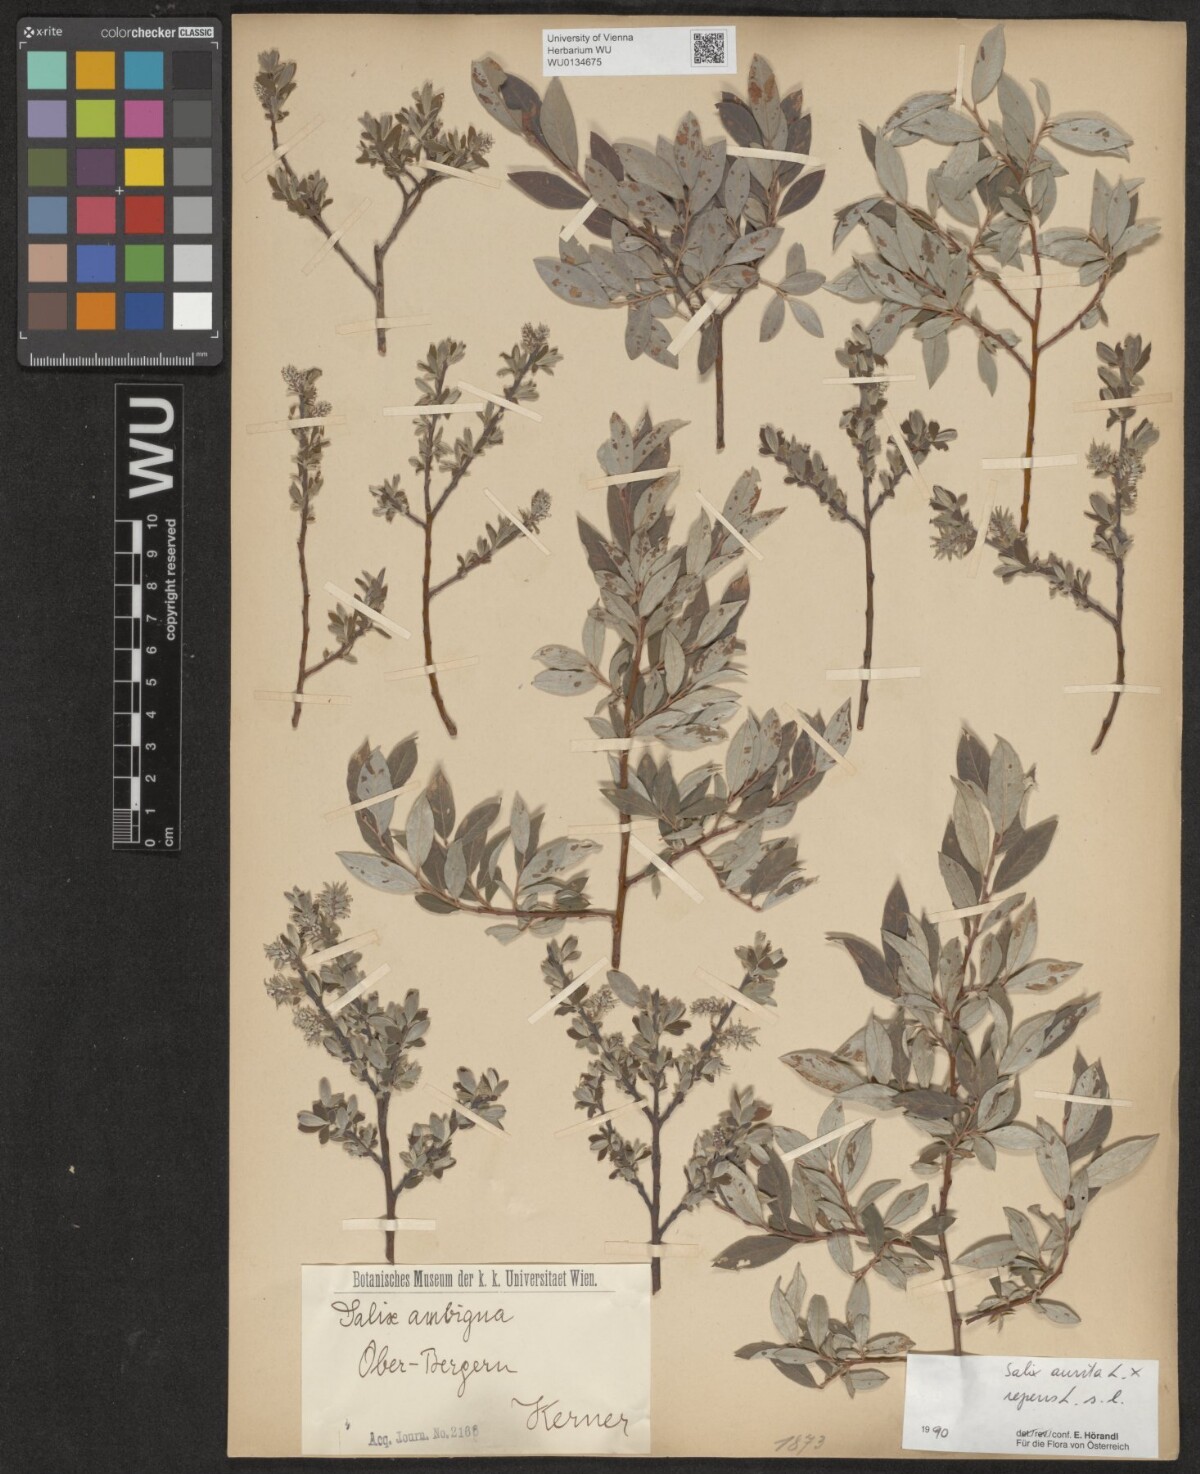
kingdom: Plantae
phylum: Tracheophyta
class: Magnoliopsida
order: Malpighiales
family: Salicaceae
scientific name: Salicaceae
